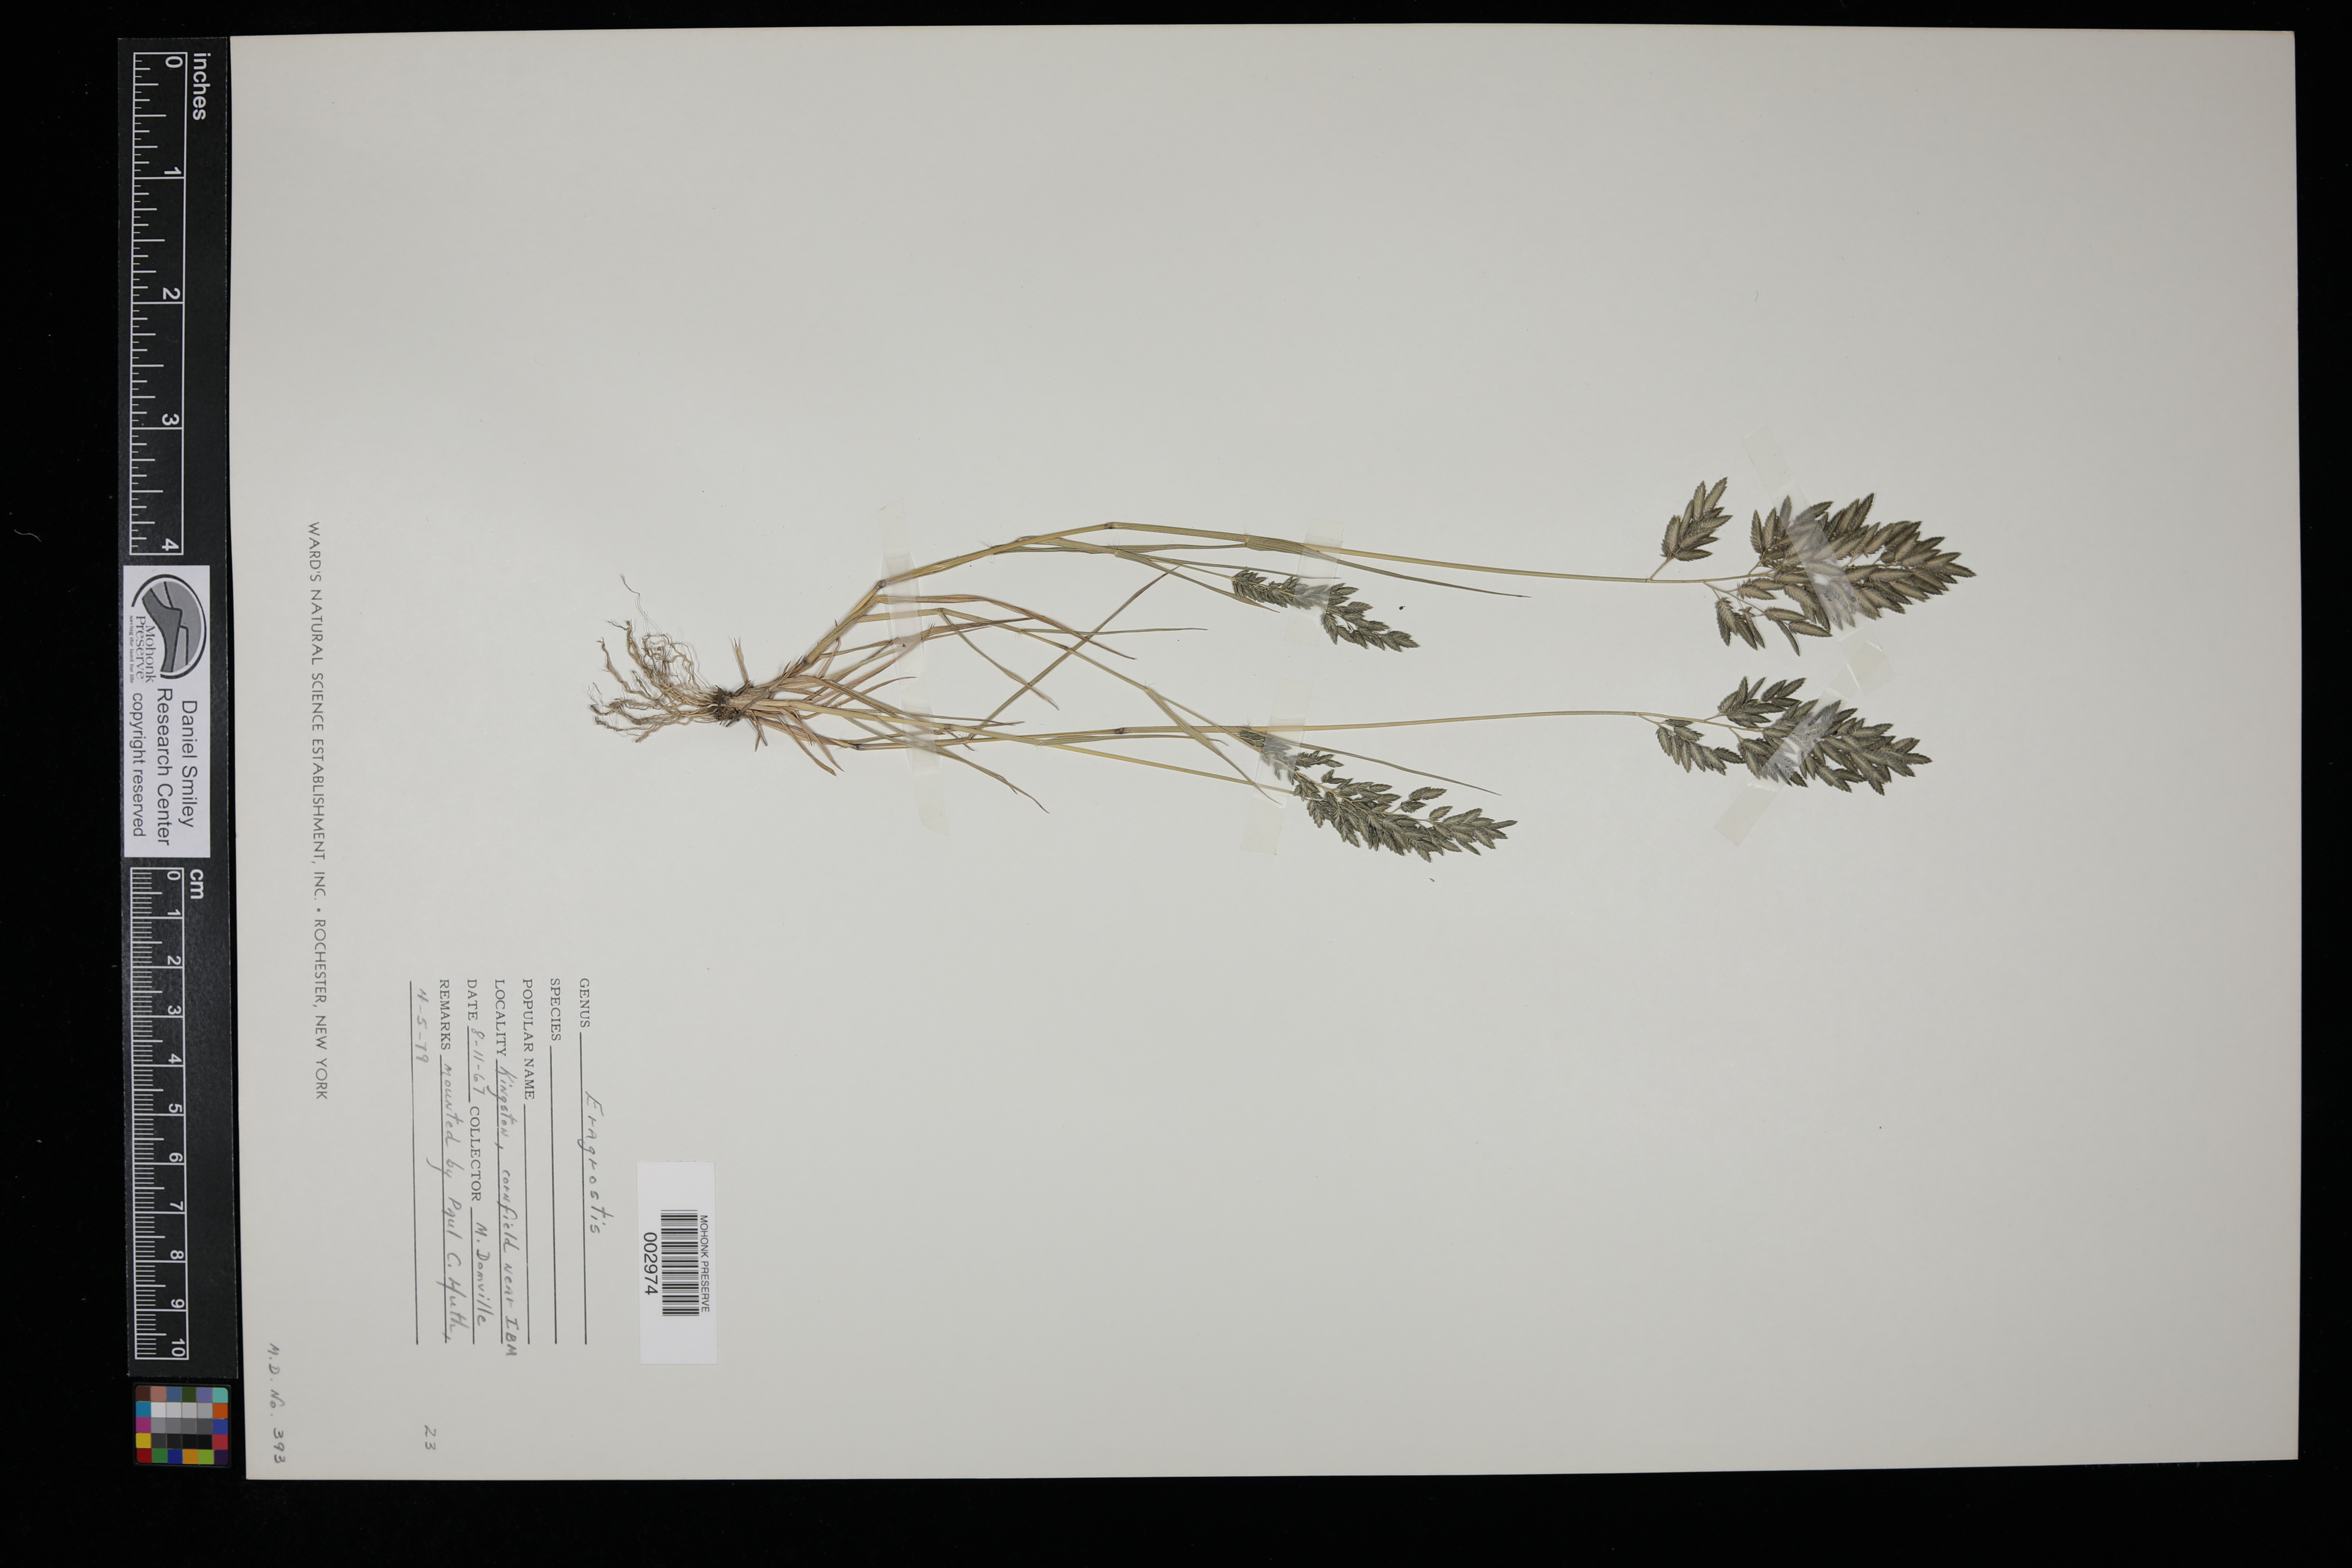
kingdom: Plantae
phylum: Tracheophyta
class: Liliopsida
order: Poales
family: Poaceae
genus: Eragrostis
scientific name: Eragrostis
